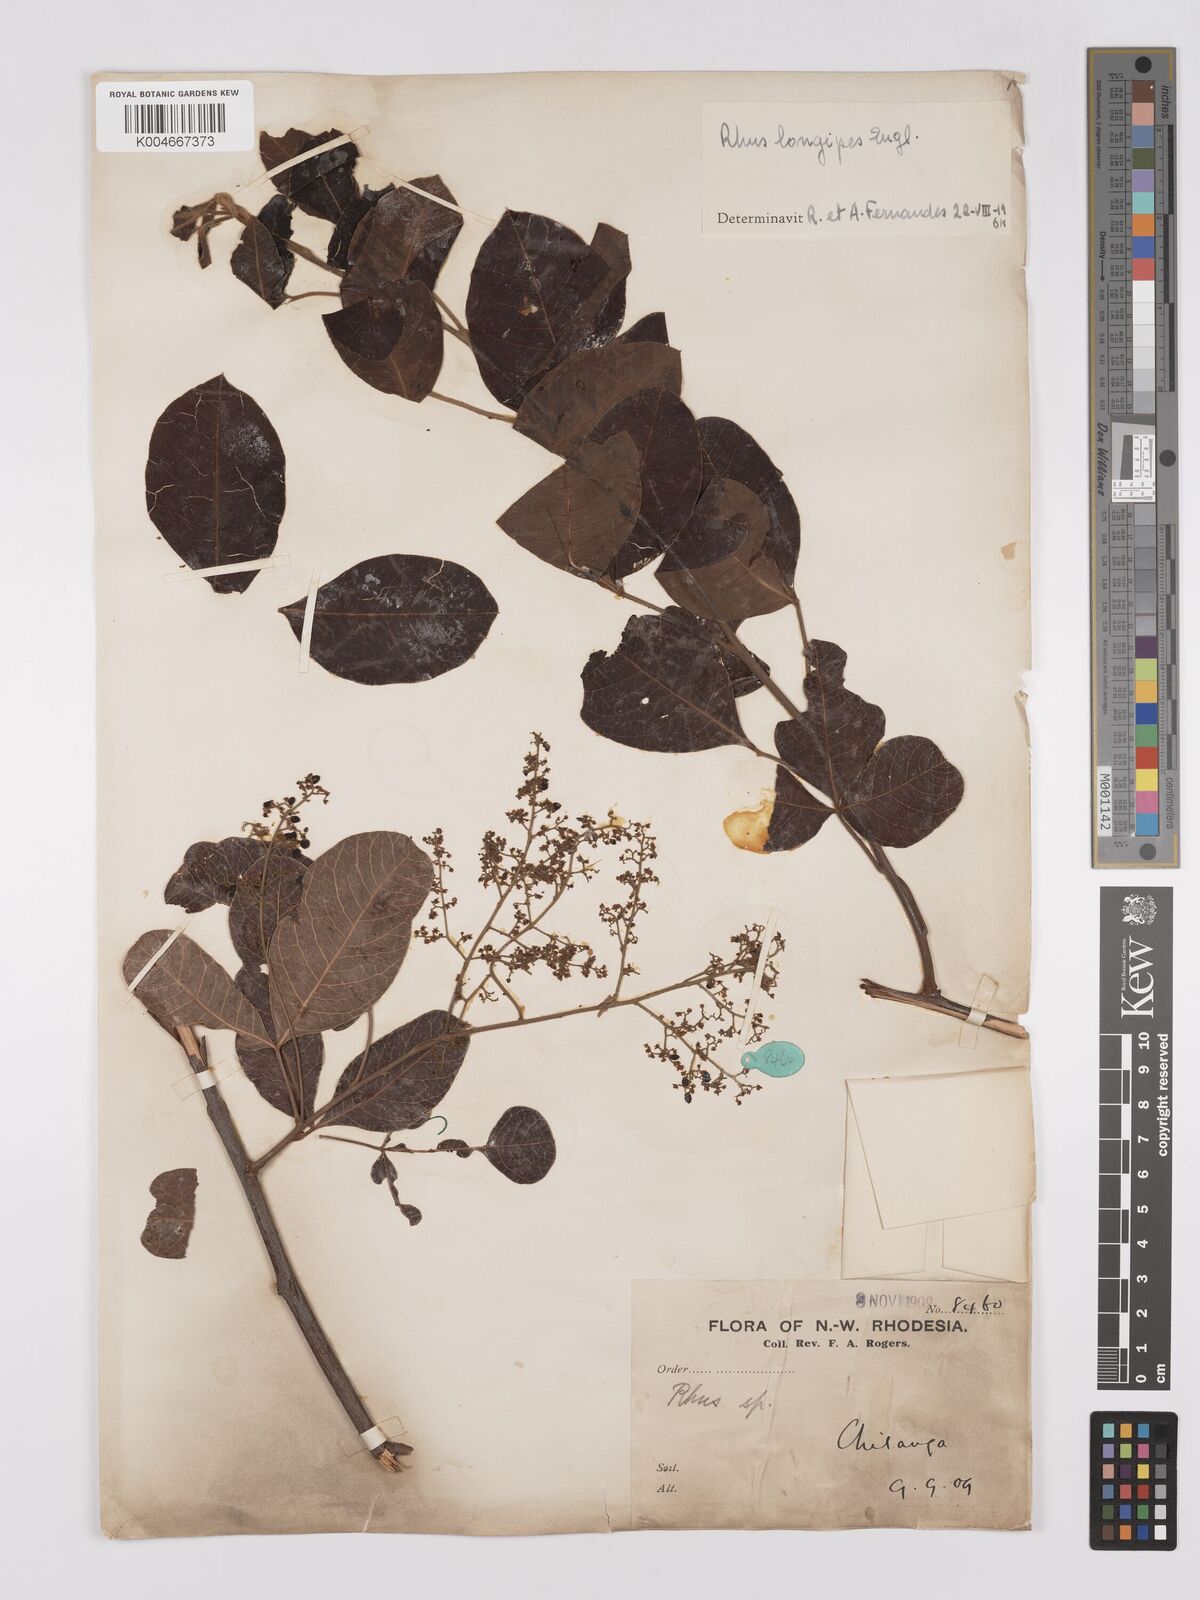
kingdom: Plantae
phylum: Tracheophyta
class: Magnoliopsida
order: Sapindales
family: Anacardiaceae
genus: Searsia
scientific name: Searsia longipes
